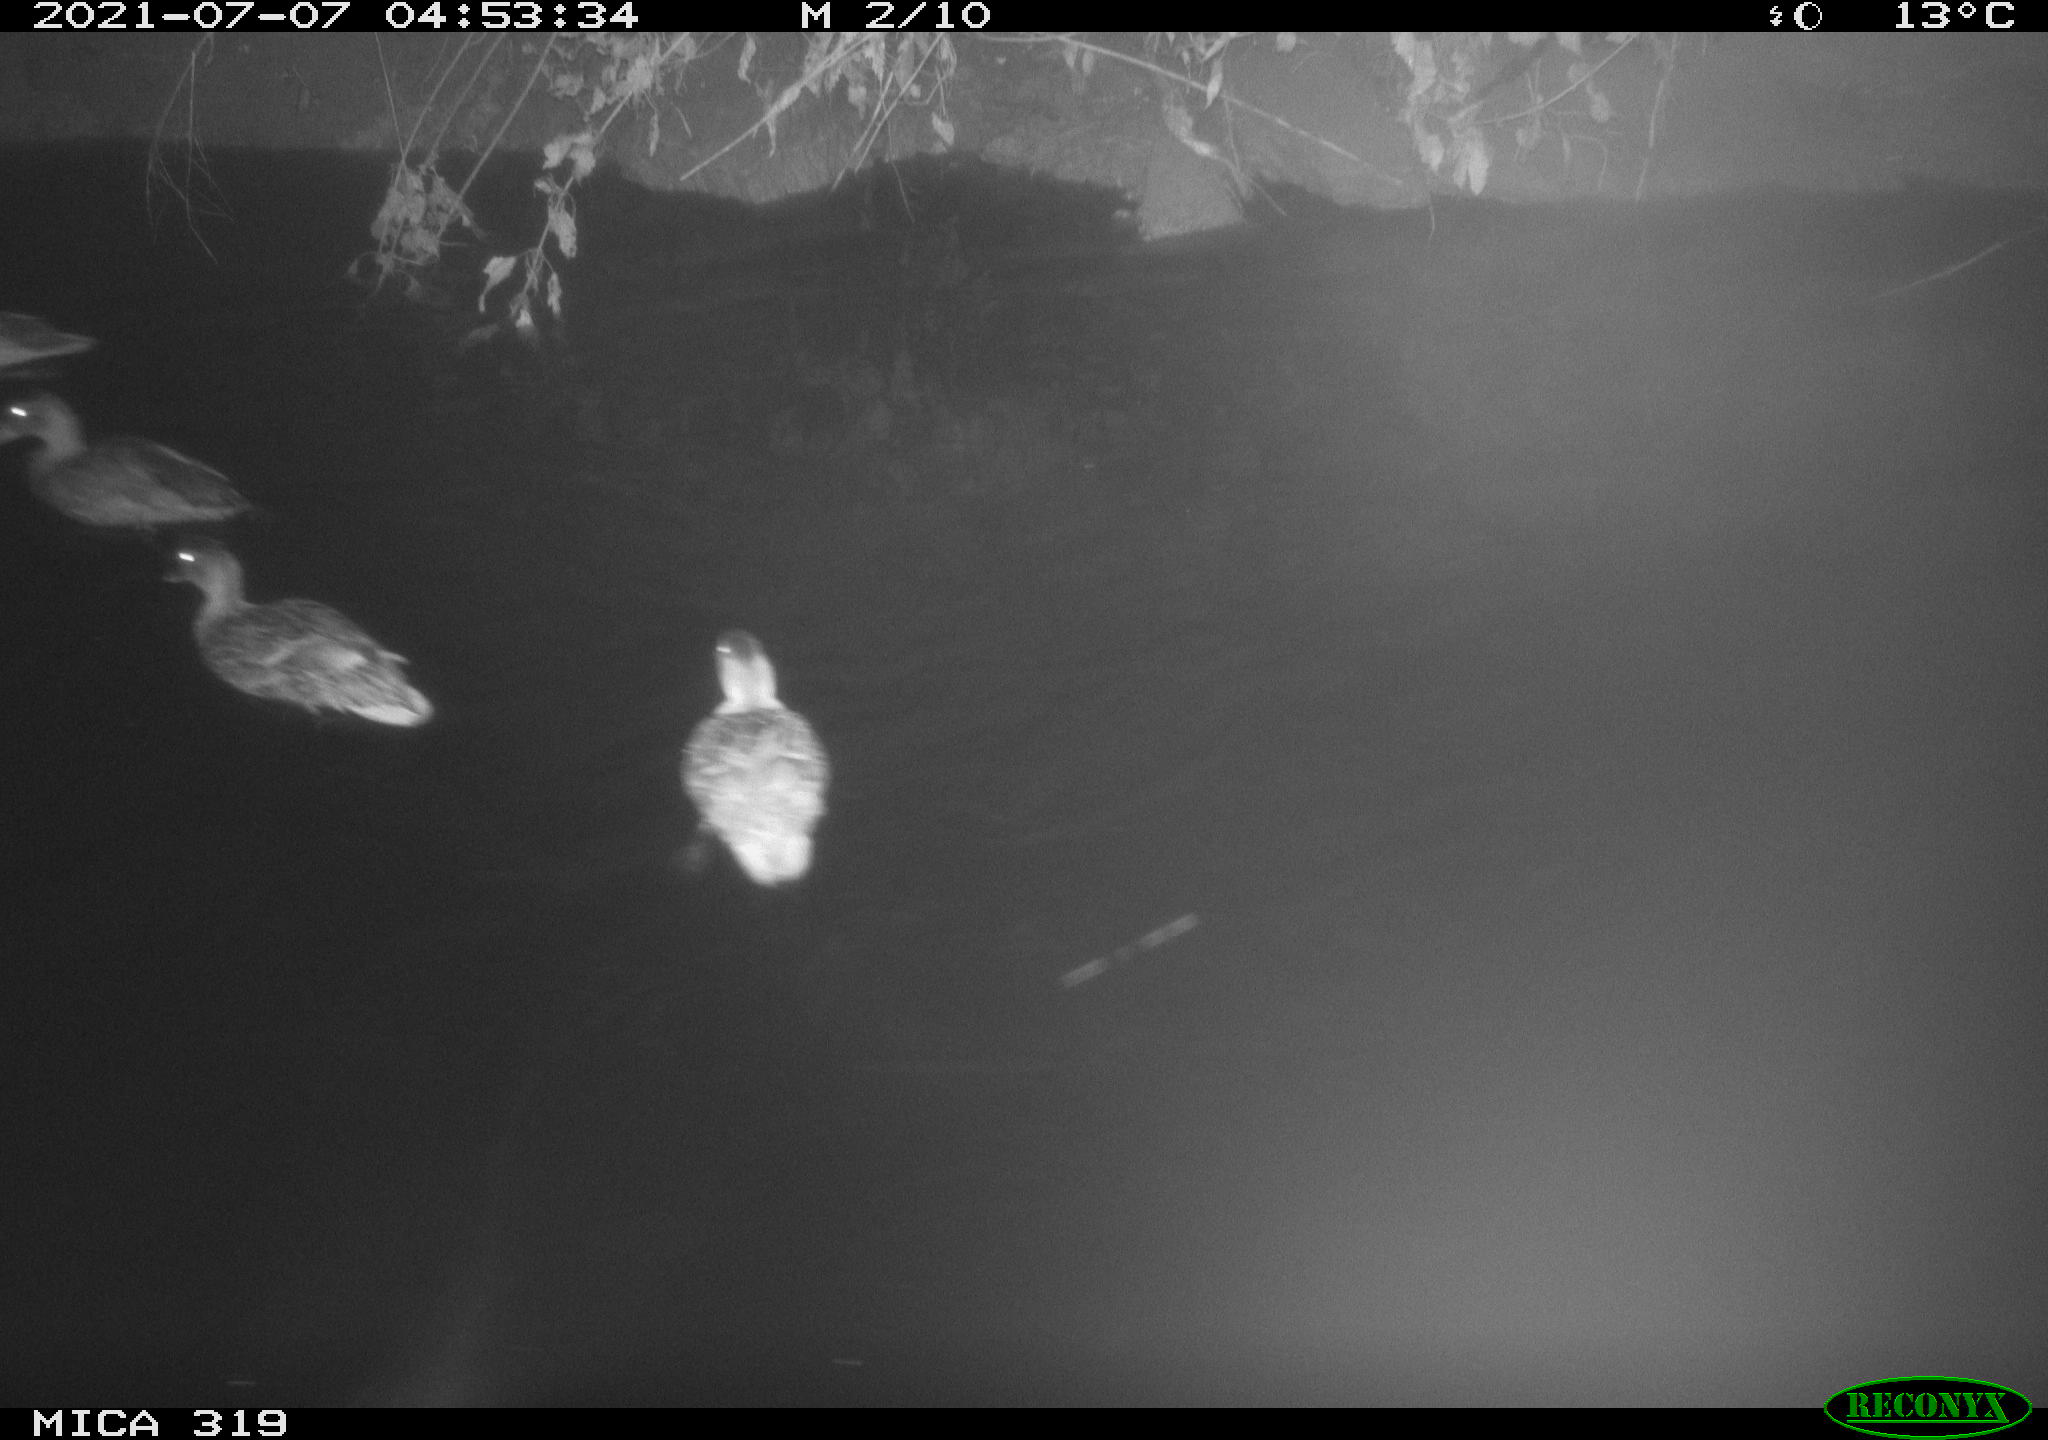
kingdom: Animalia
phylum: Chordata
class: Aves
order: Anseriformes
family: Anatidae
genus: Anas
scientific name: Anas platyrhynchos
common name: Mallard
